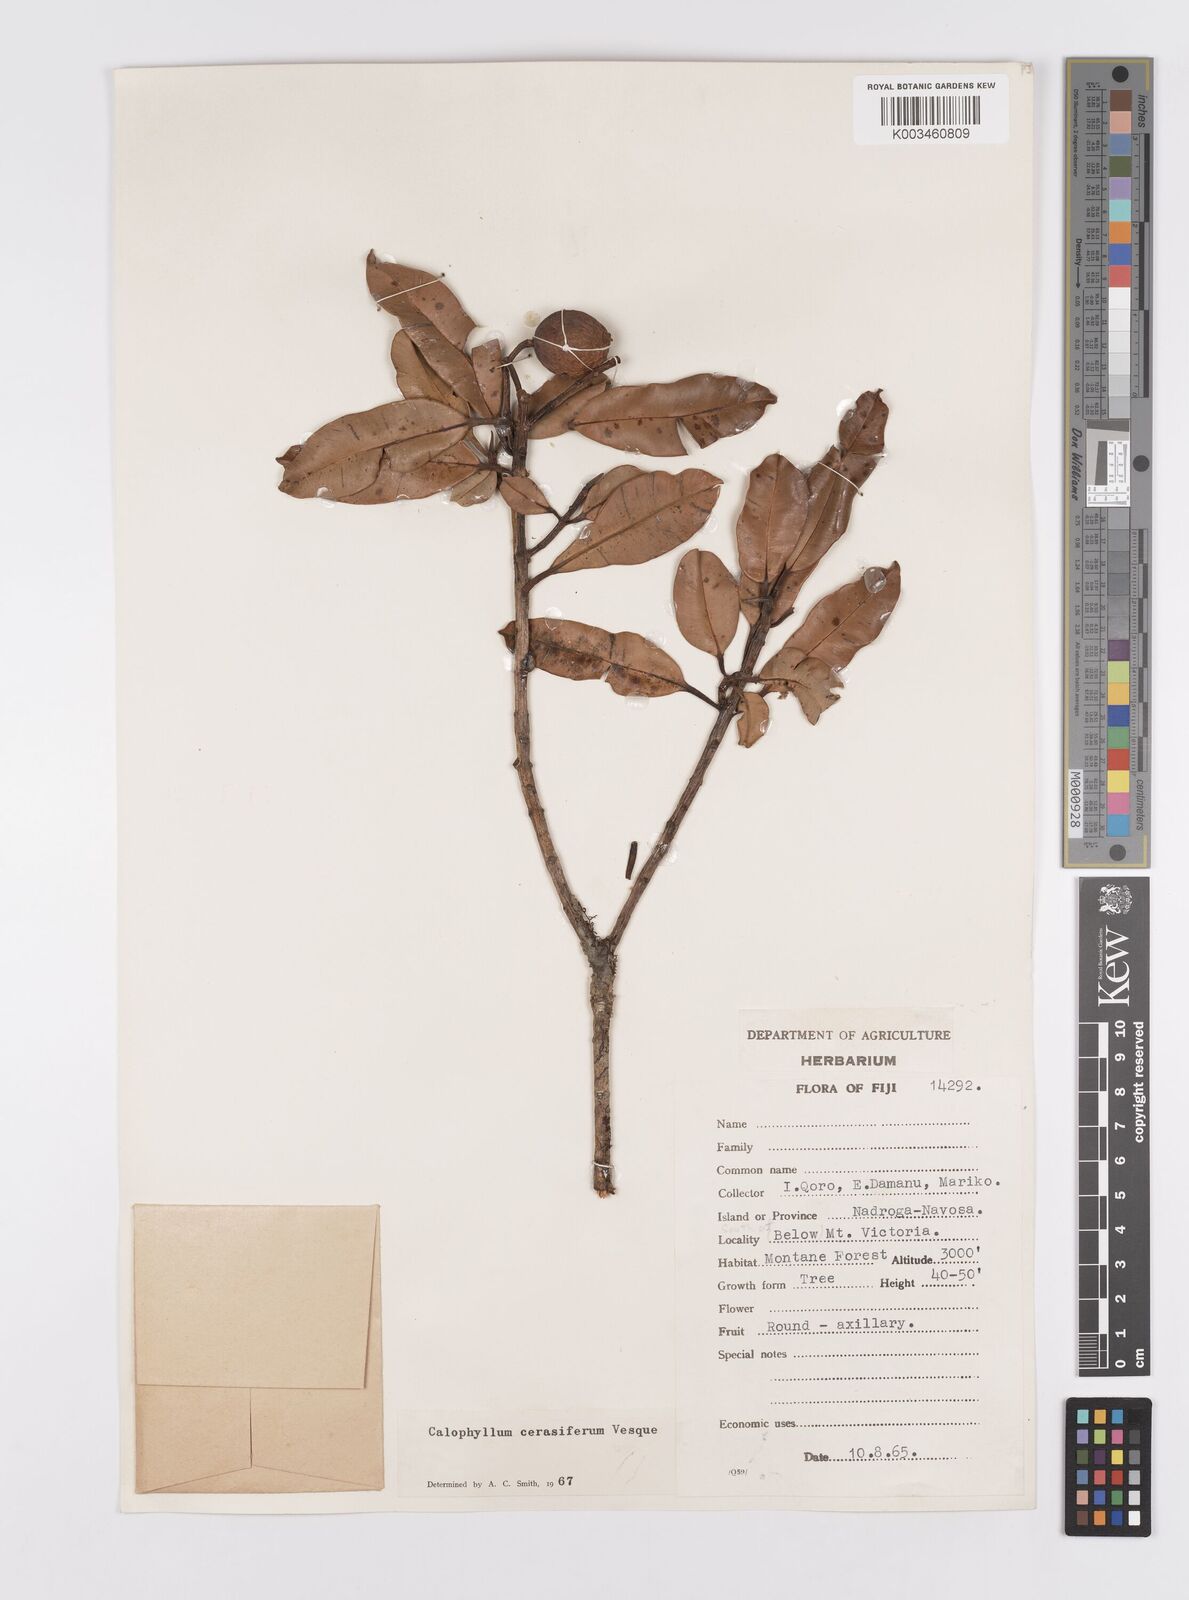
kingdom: Plantae
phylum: Tracheophyta
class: Magnoliopsida
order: Malpighiales
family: Calophyllaceae
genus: Calophyllum
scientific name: Calophyllum cerasiferum
